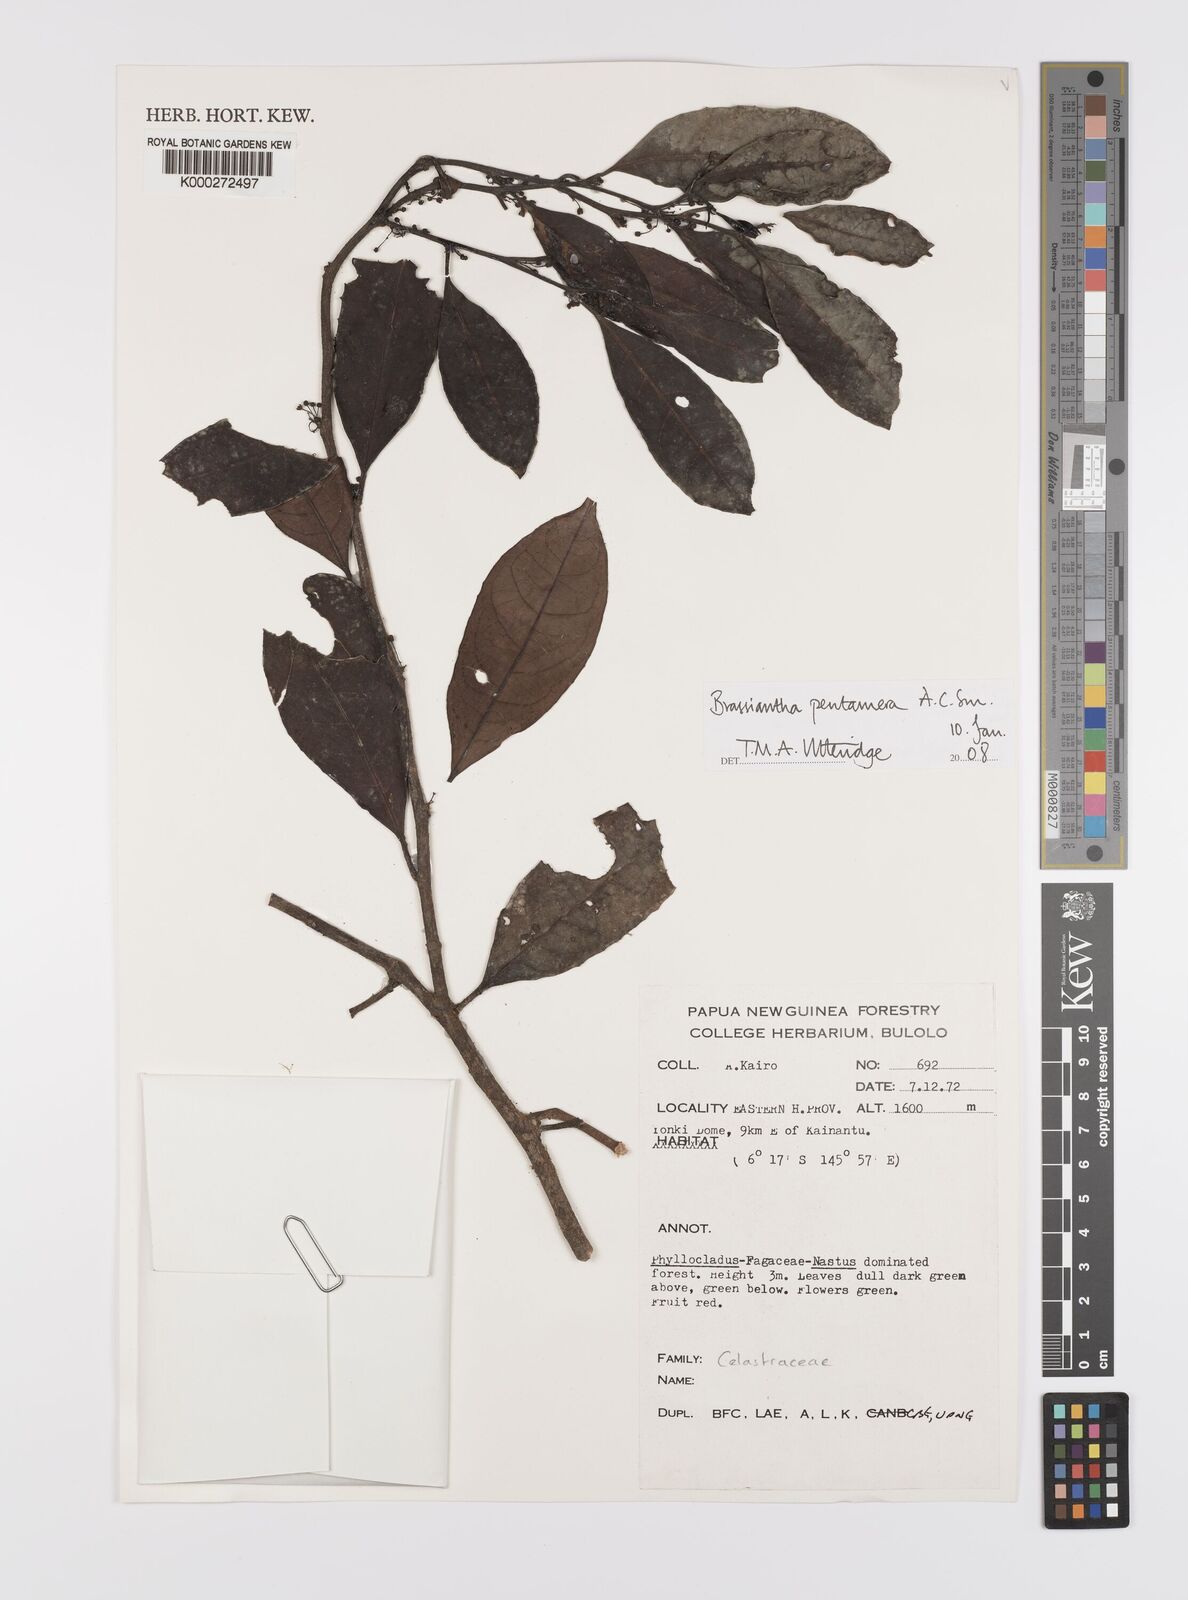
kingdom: Plantae
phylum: Tracheophyta
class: Magnoliopsida
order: Celastrales
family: Celastraceae
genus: Brassiantha
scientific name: Brassiantha pentamera
